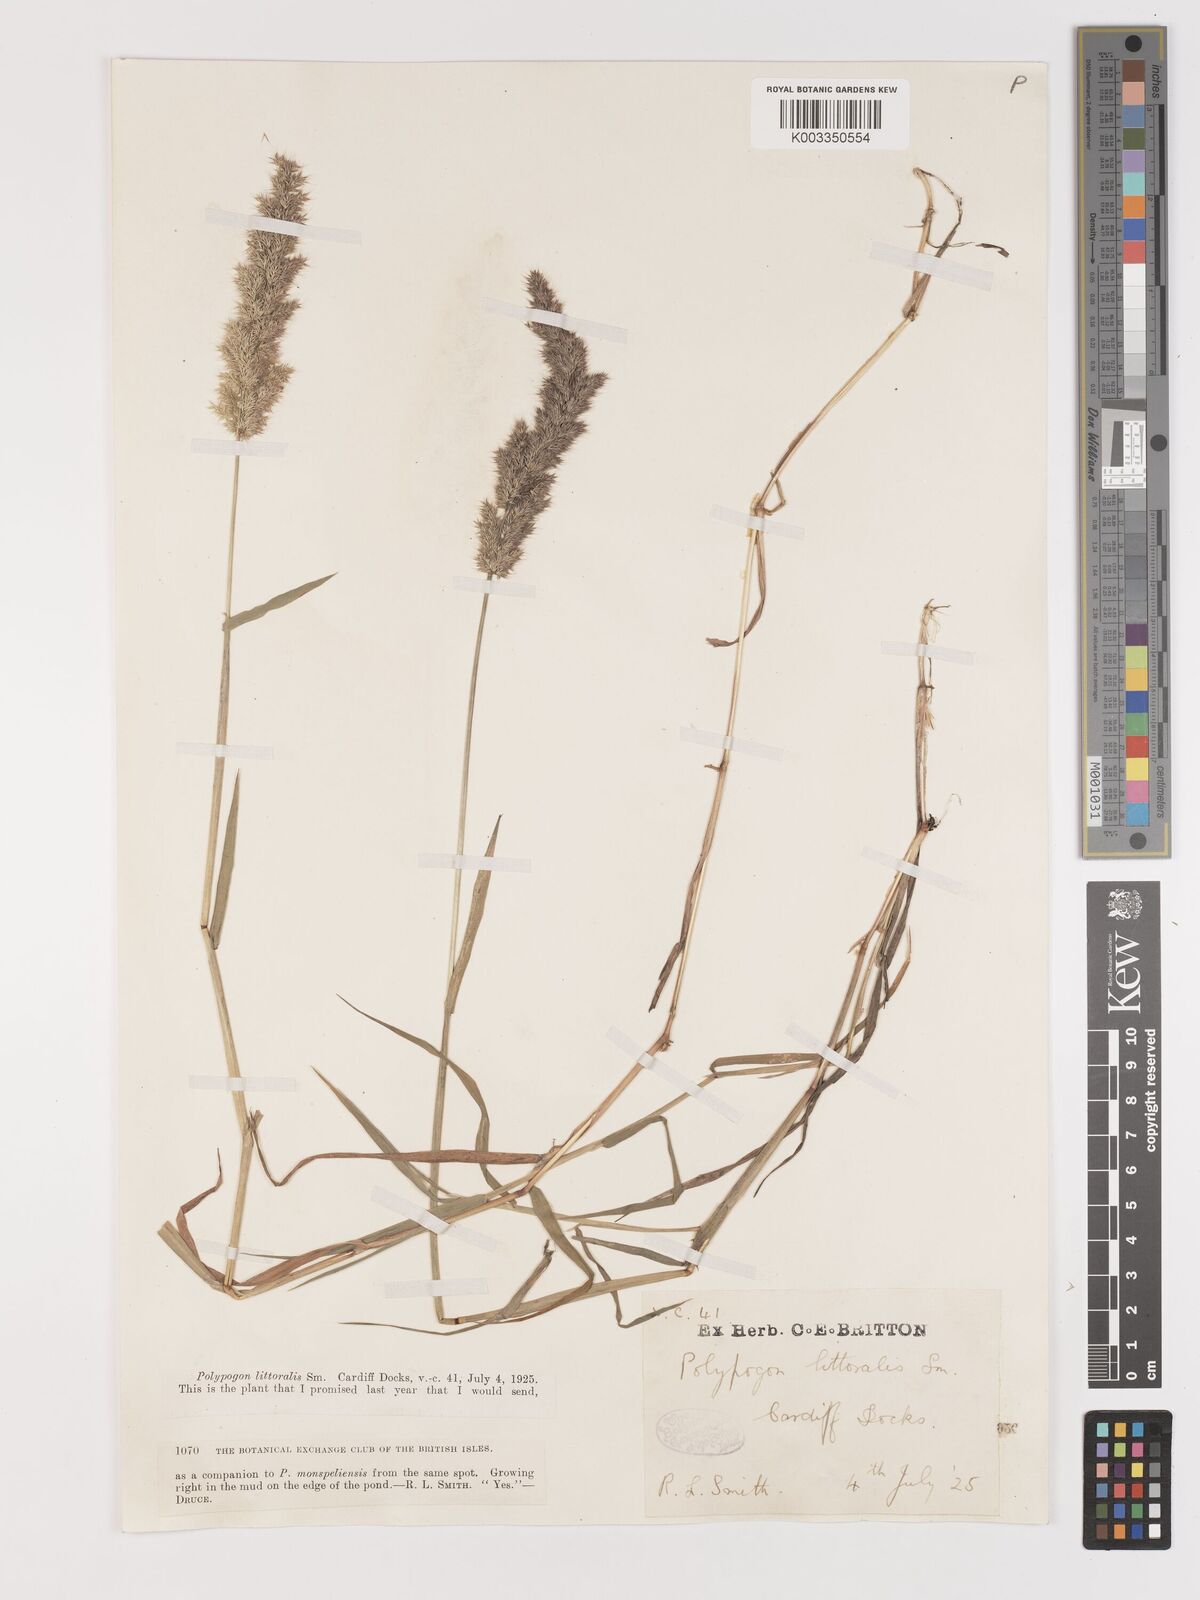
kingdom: Plantae
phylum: Tracheophyta
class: Liliopsida
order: Poales
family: Poaceae
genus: Agropogon
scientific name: Agropogon lutosus
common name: Coast agropogon
